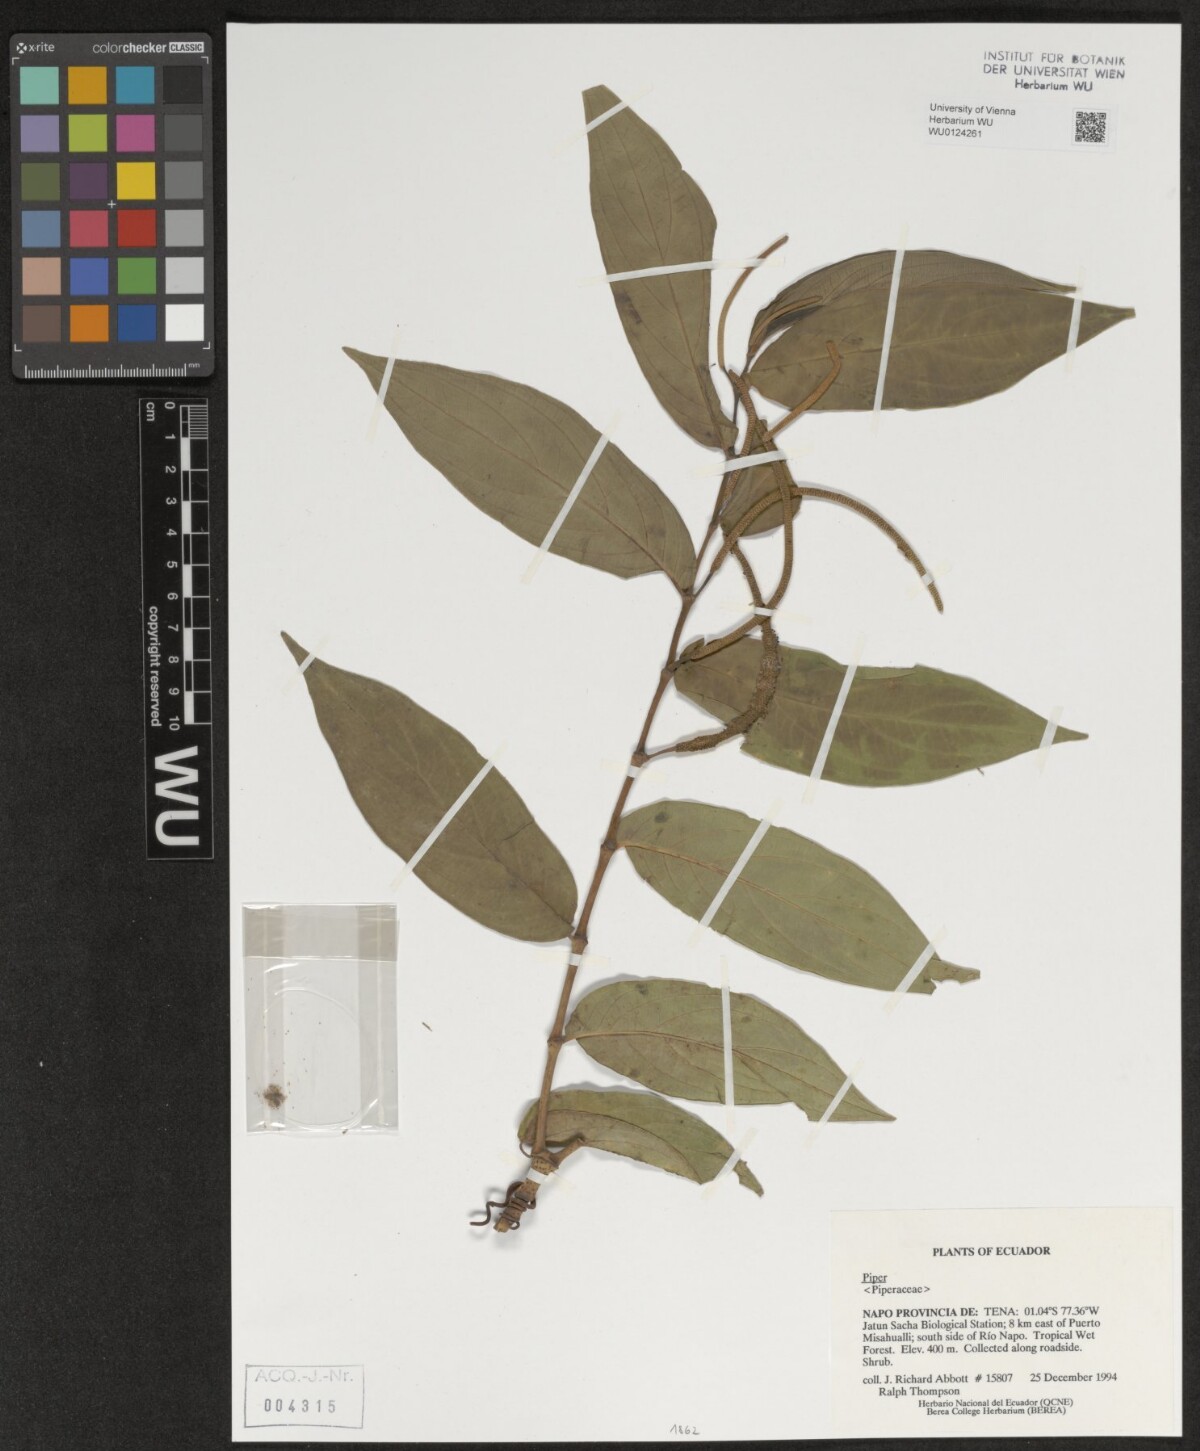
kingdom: Plantae
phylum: Tracheophyta
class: Magnoliopsida
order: Piperales
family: Piperaceae
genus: Piper
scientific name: Piper
